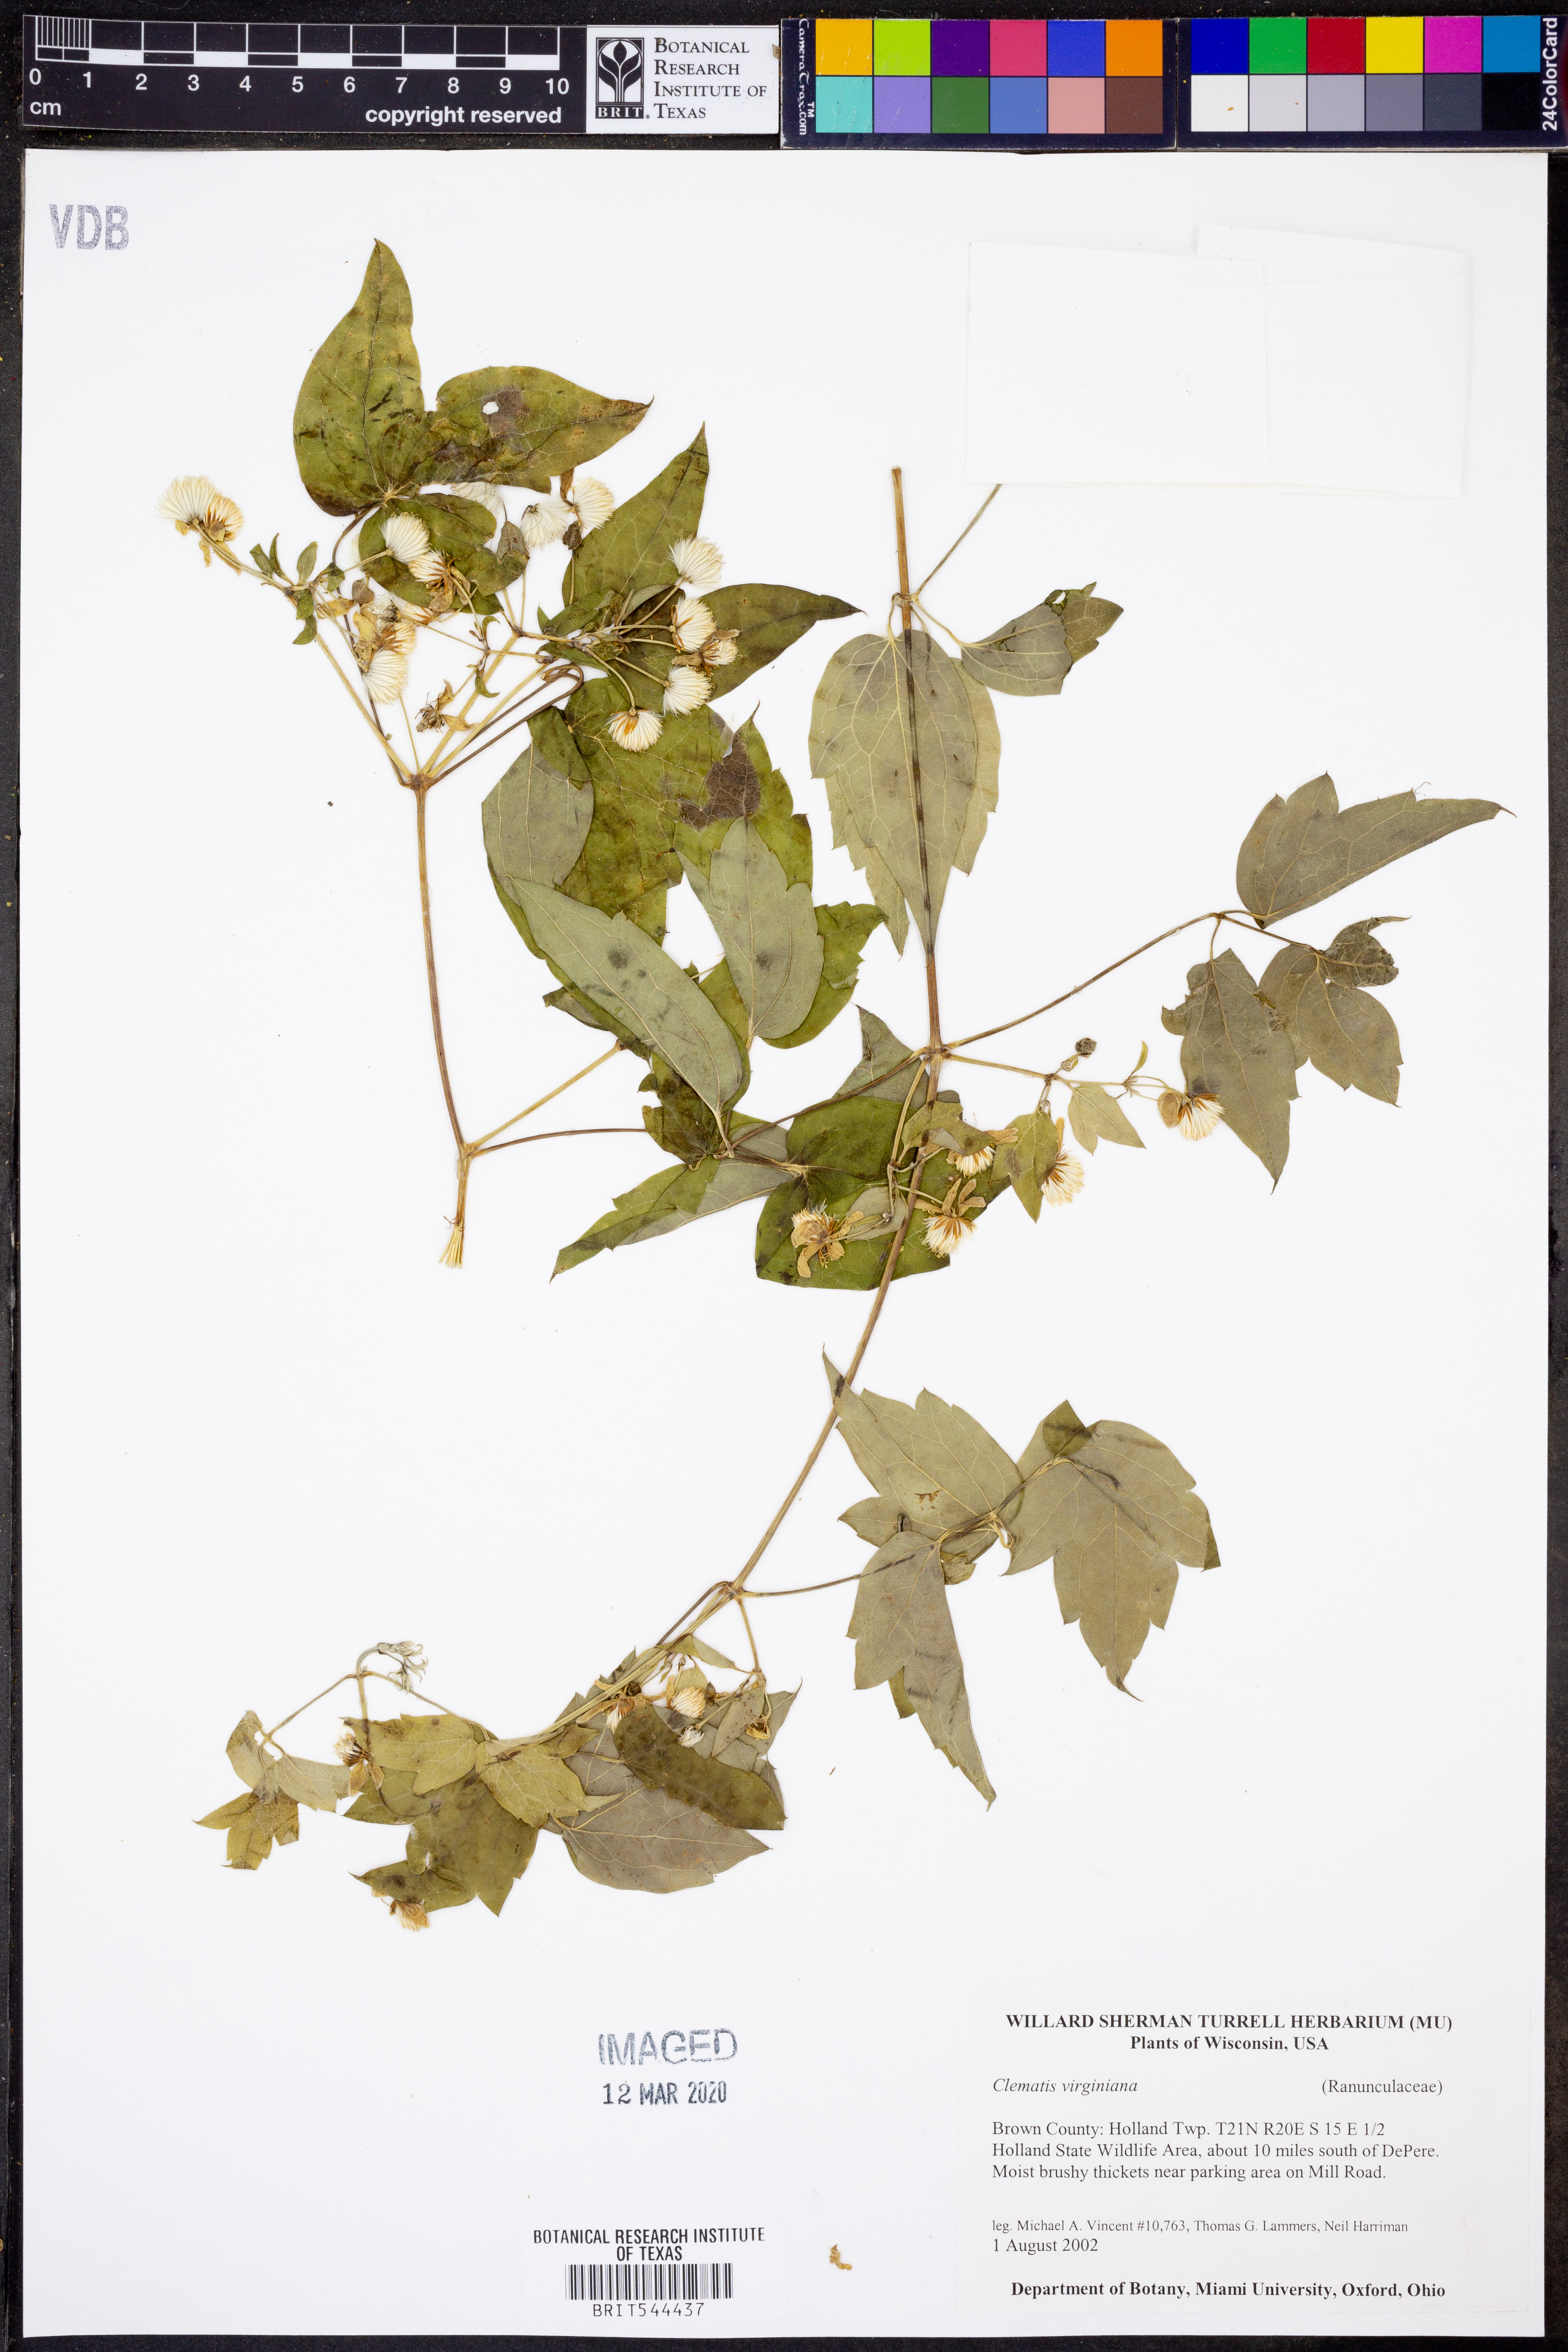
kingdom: Plantae
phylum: Tracheophyta
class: Magnoliopsida
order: Ranunculales
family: Ranunculaceae
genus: Clematis
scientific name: Clematis virginiana
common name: Virgin's-bower
